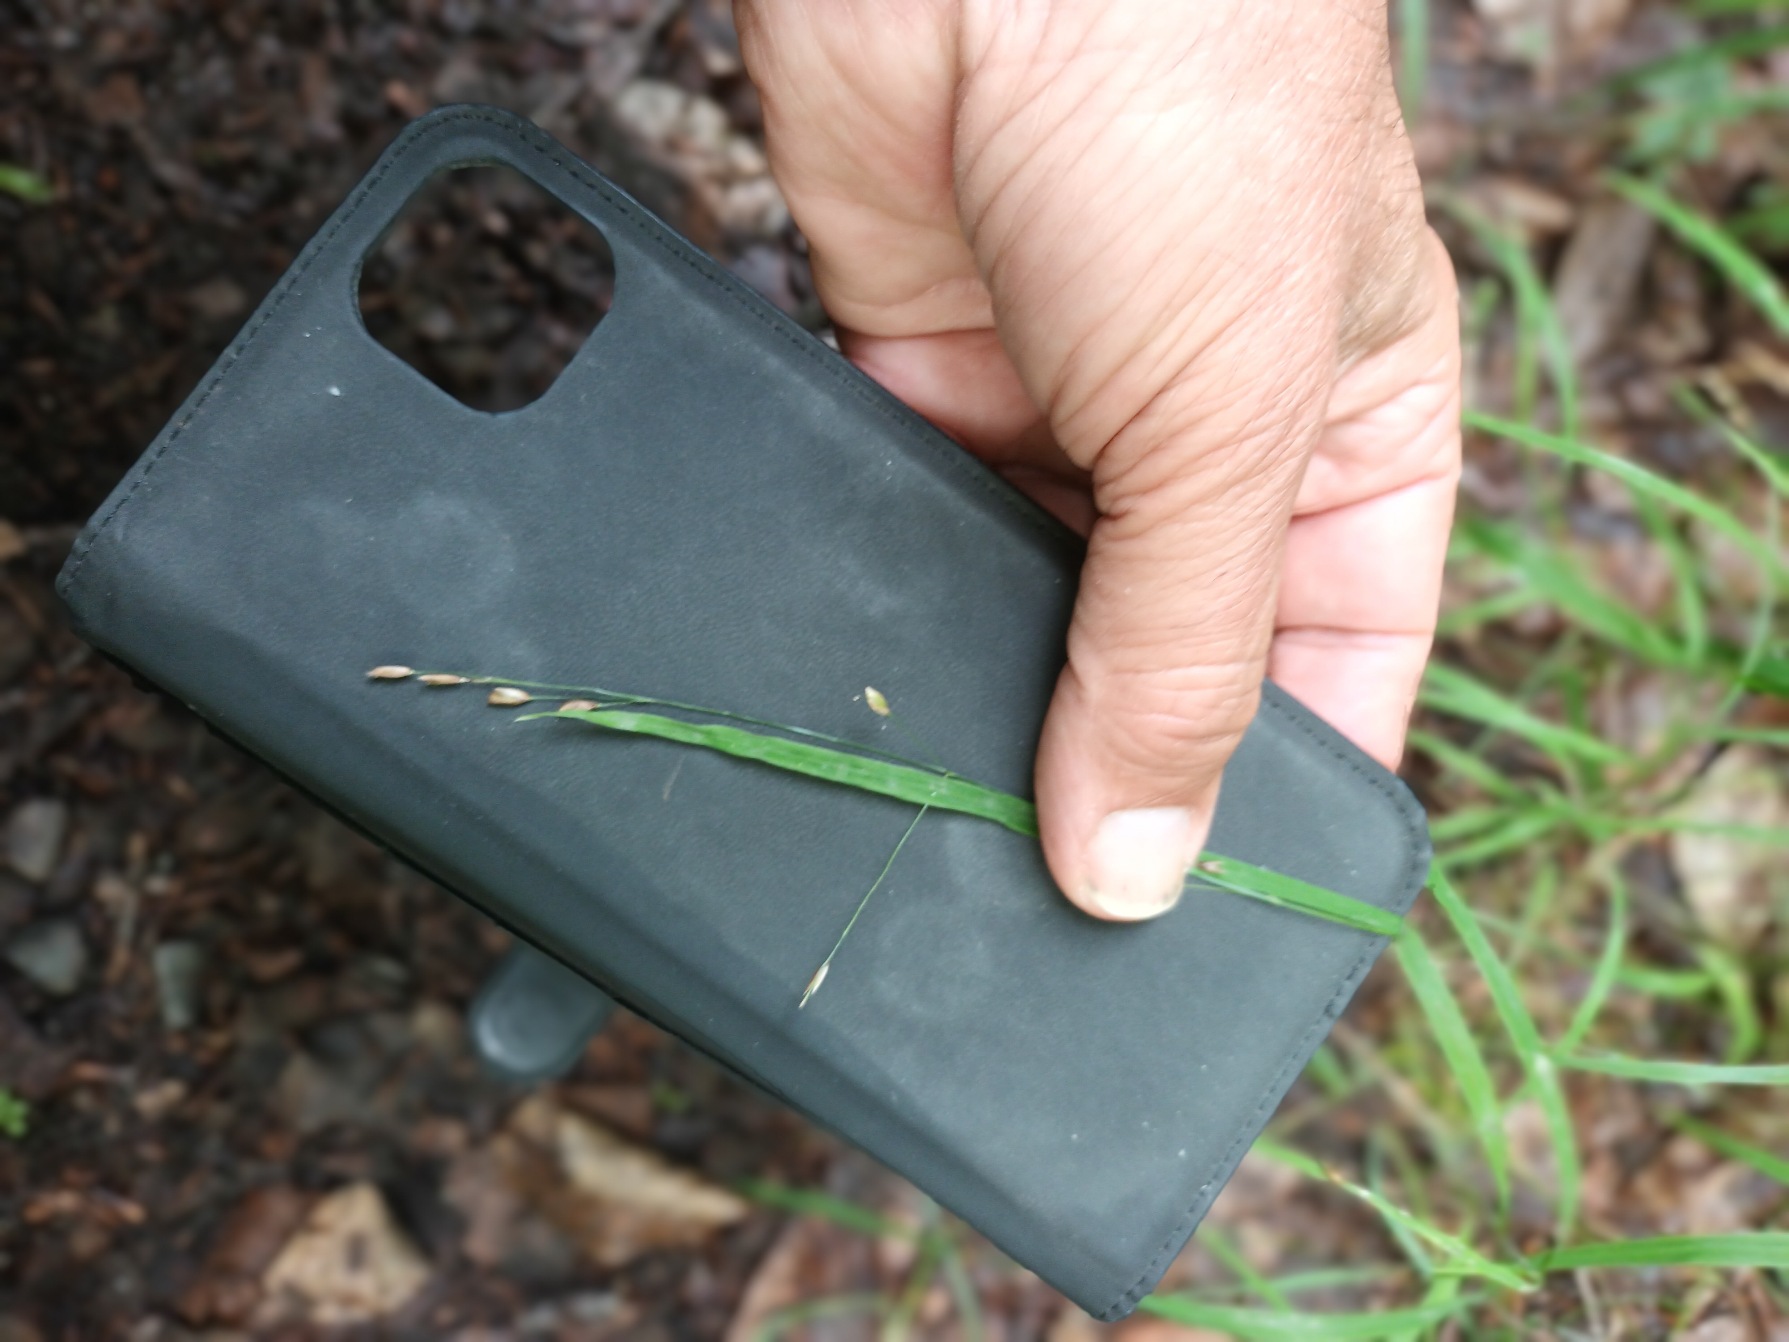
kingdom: Plantae
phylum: Tracheophyta
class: Liliopsida
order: Poales
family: Poaceae
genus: Melica
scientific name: Melica uniflora
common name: Enblomstret flitteraks
